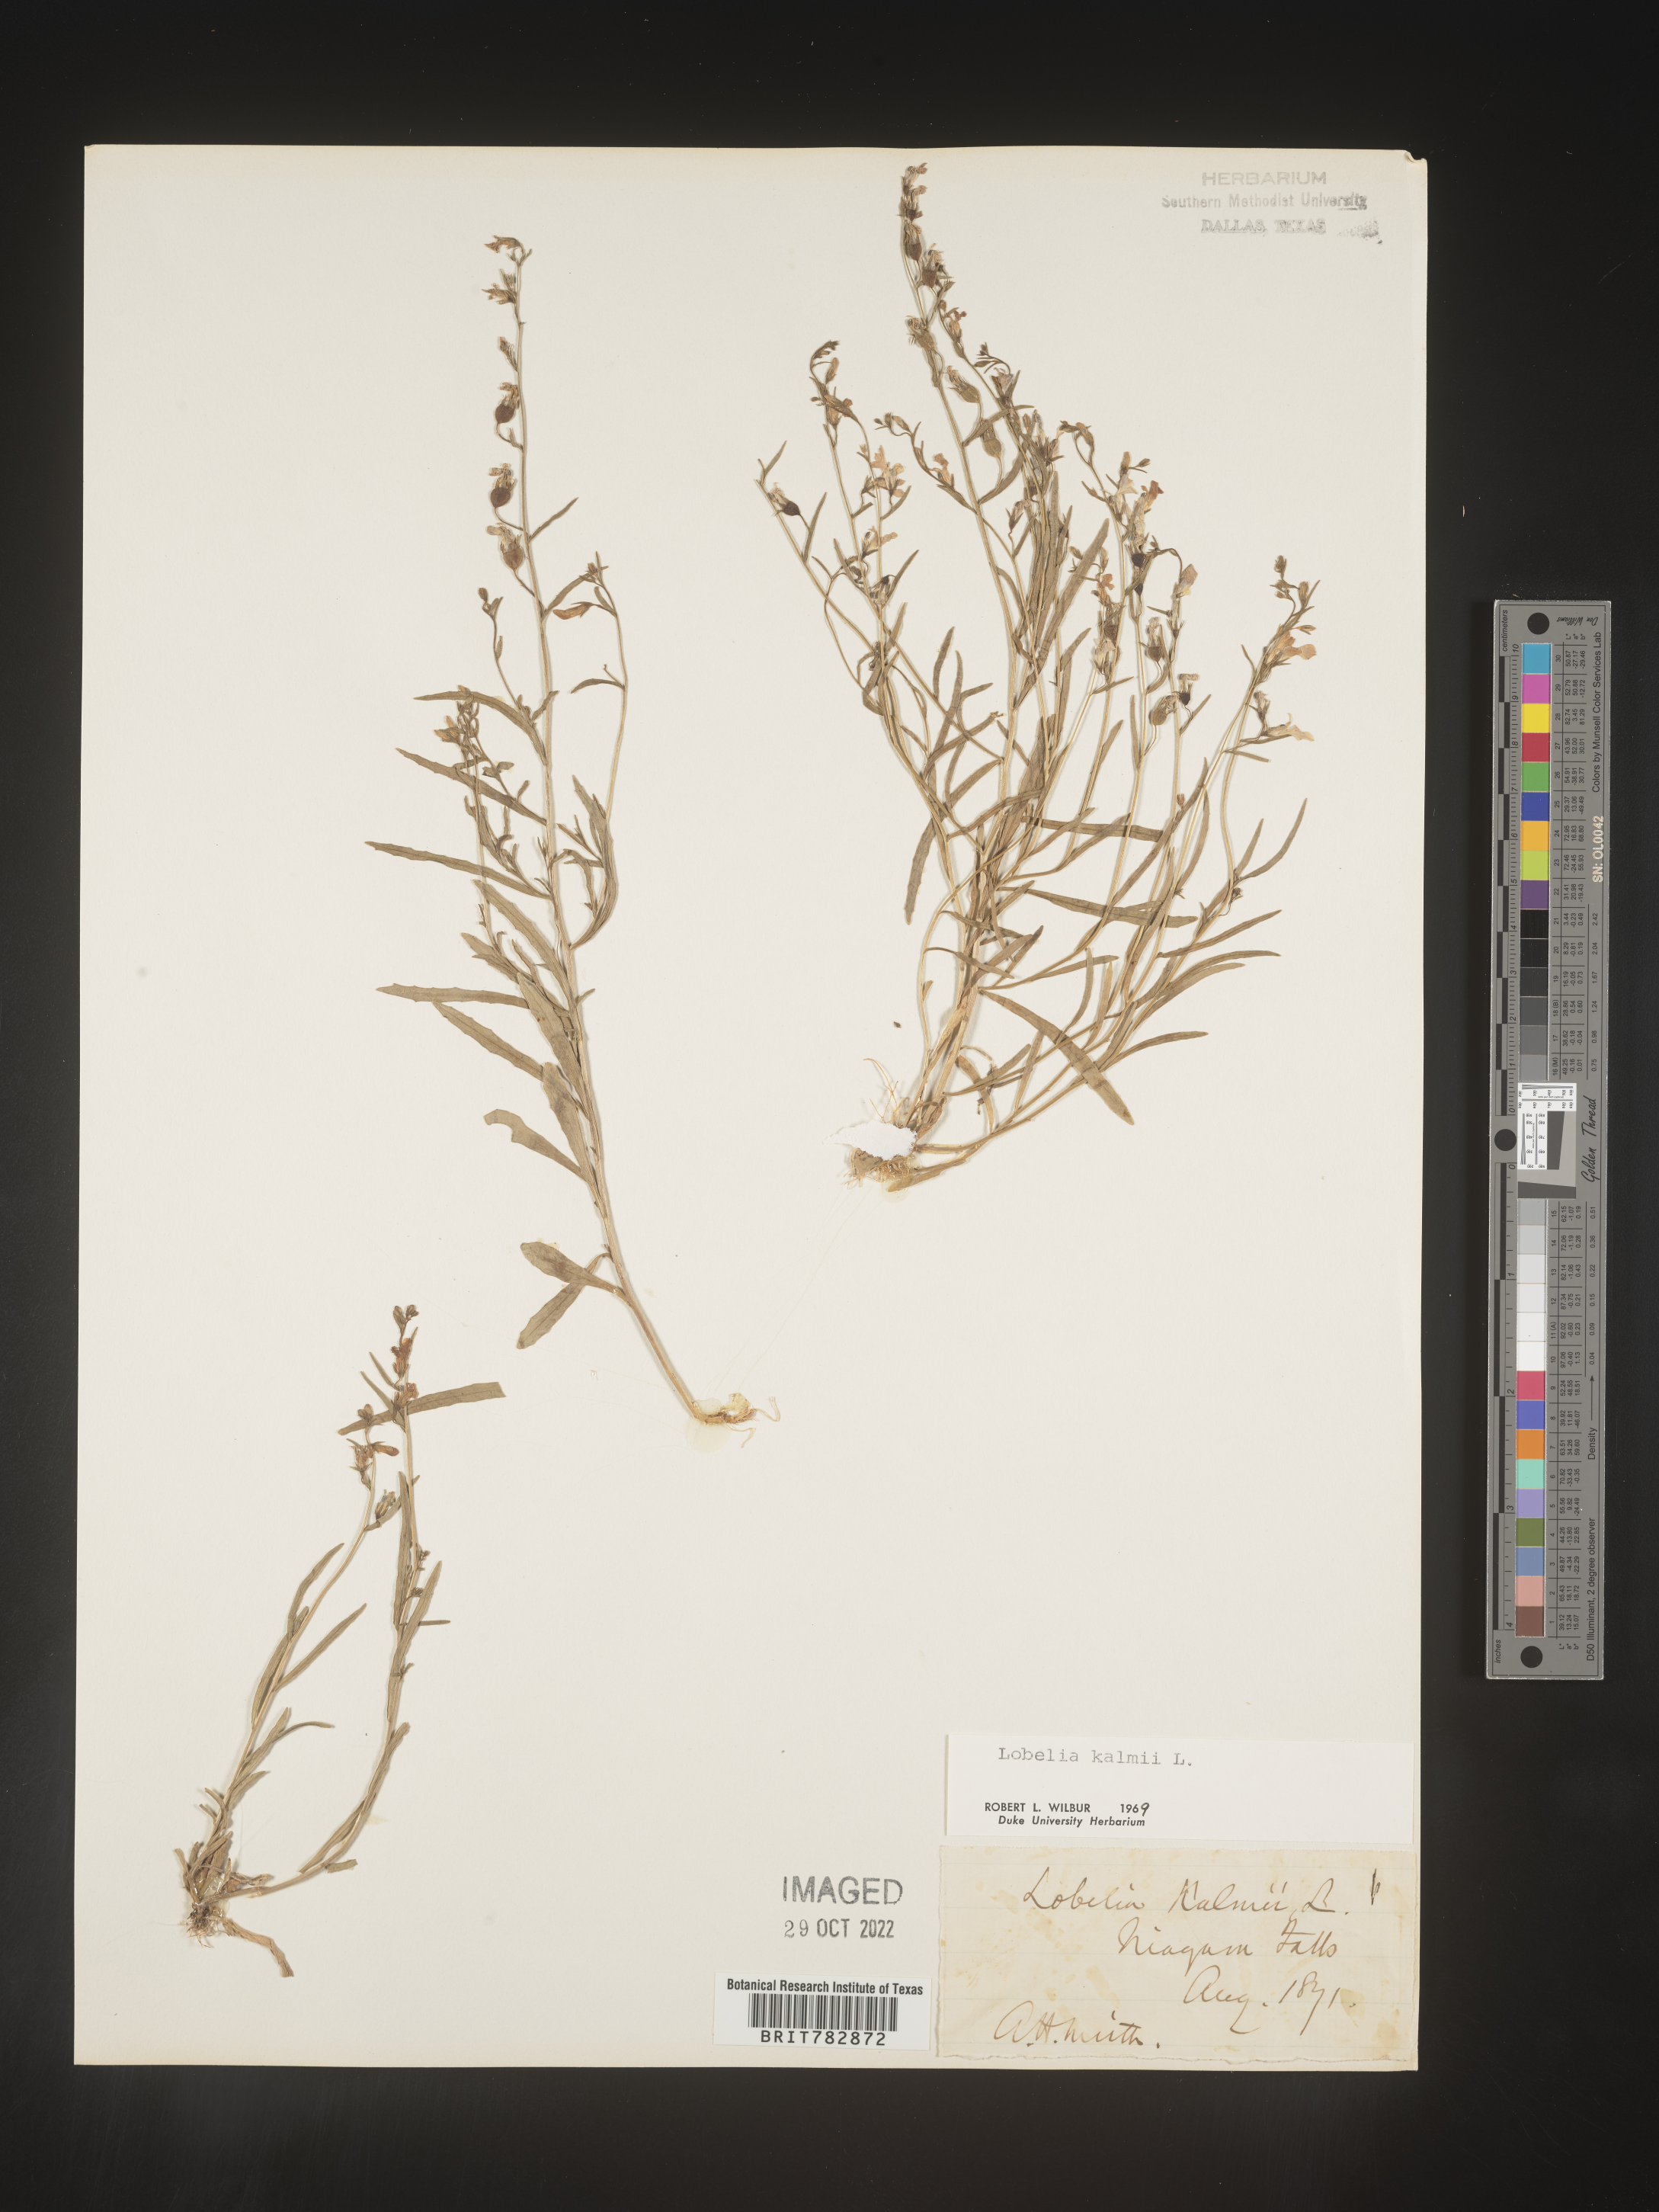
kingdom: Plantae
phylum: Tracheophyta
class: Magnoliopsida
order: Asterales
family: Campanulaceae
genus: Lobelia
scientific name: Lobelia
